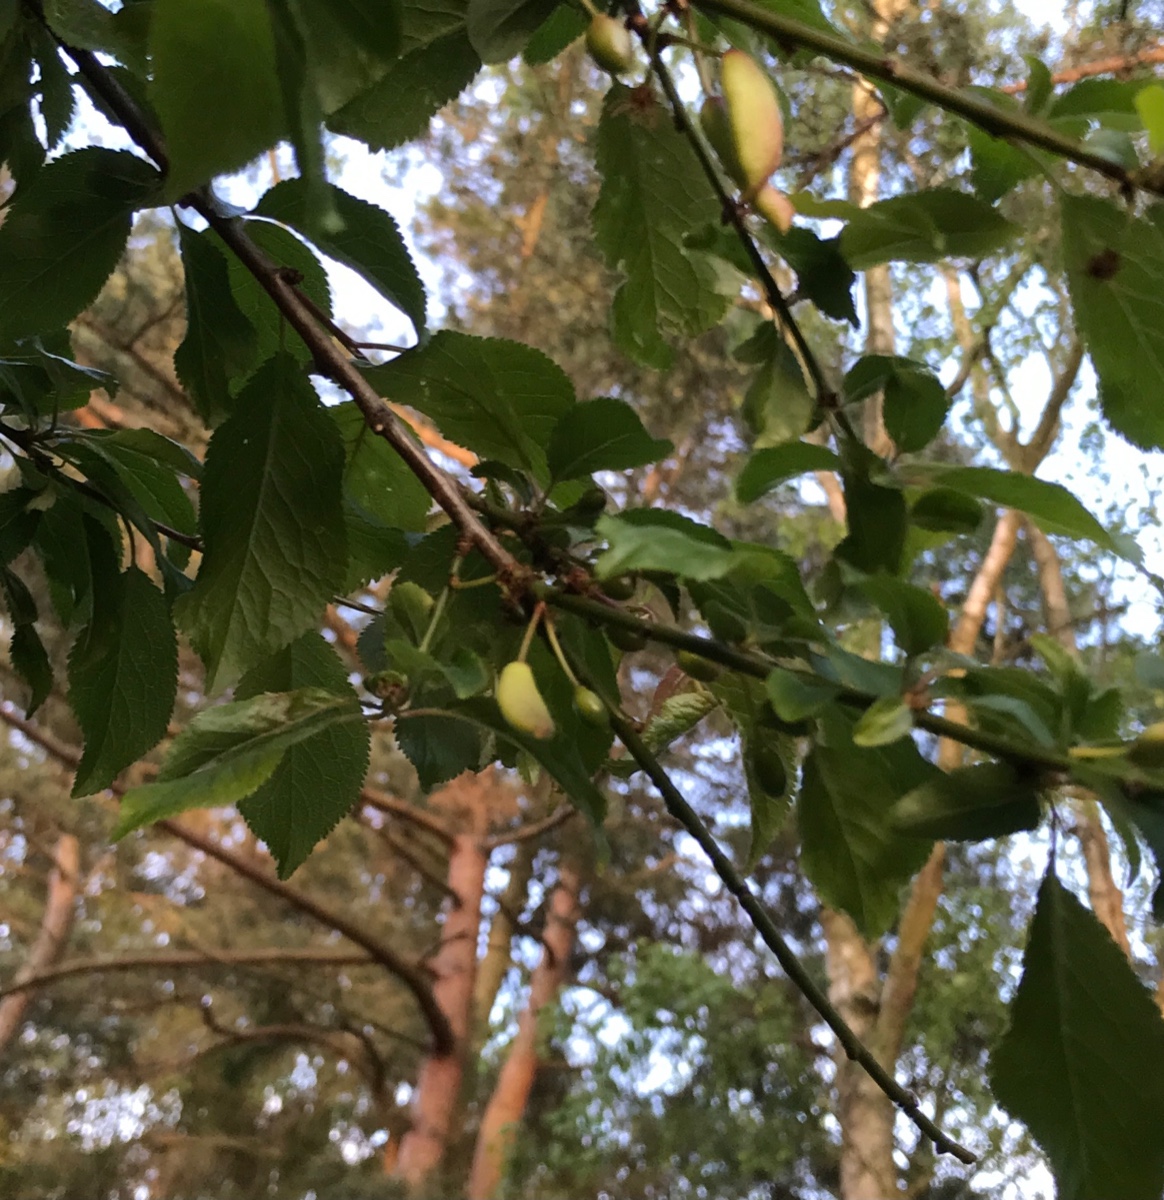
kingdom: Fungi
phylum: Ascomycota
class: Taphrinomycetes
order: Taphrinales
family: Taphrinaceae
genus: Taphrina
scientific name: Taphrina pruni
